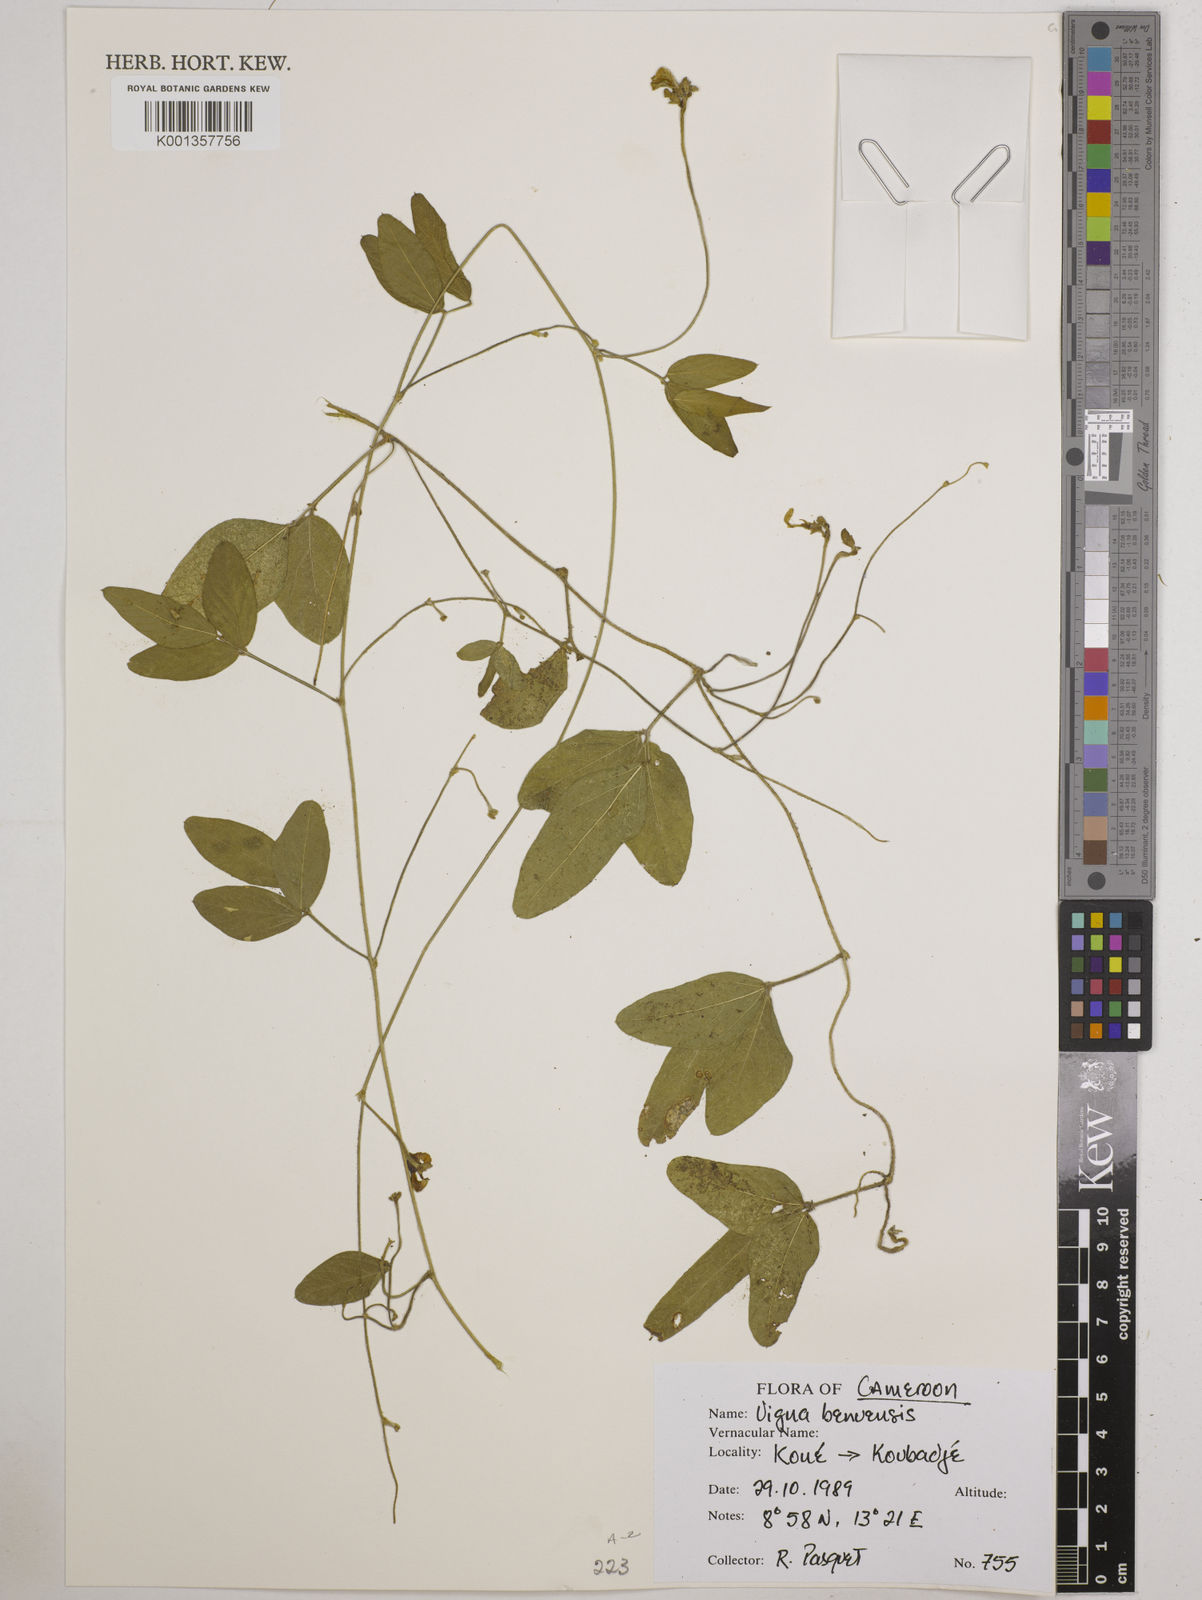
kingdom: Plantae
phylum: Tracheophyta
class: Magnoliopsida
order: Fabales
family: Fabaceae
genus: Vigna
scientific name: Vigna pubigera
